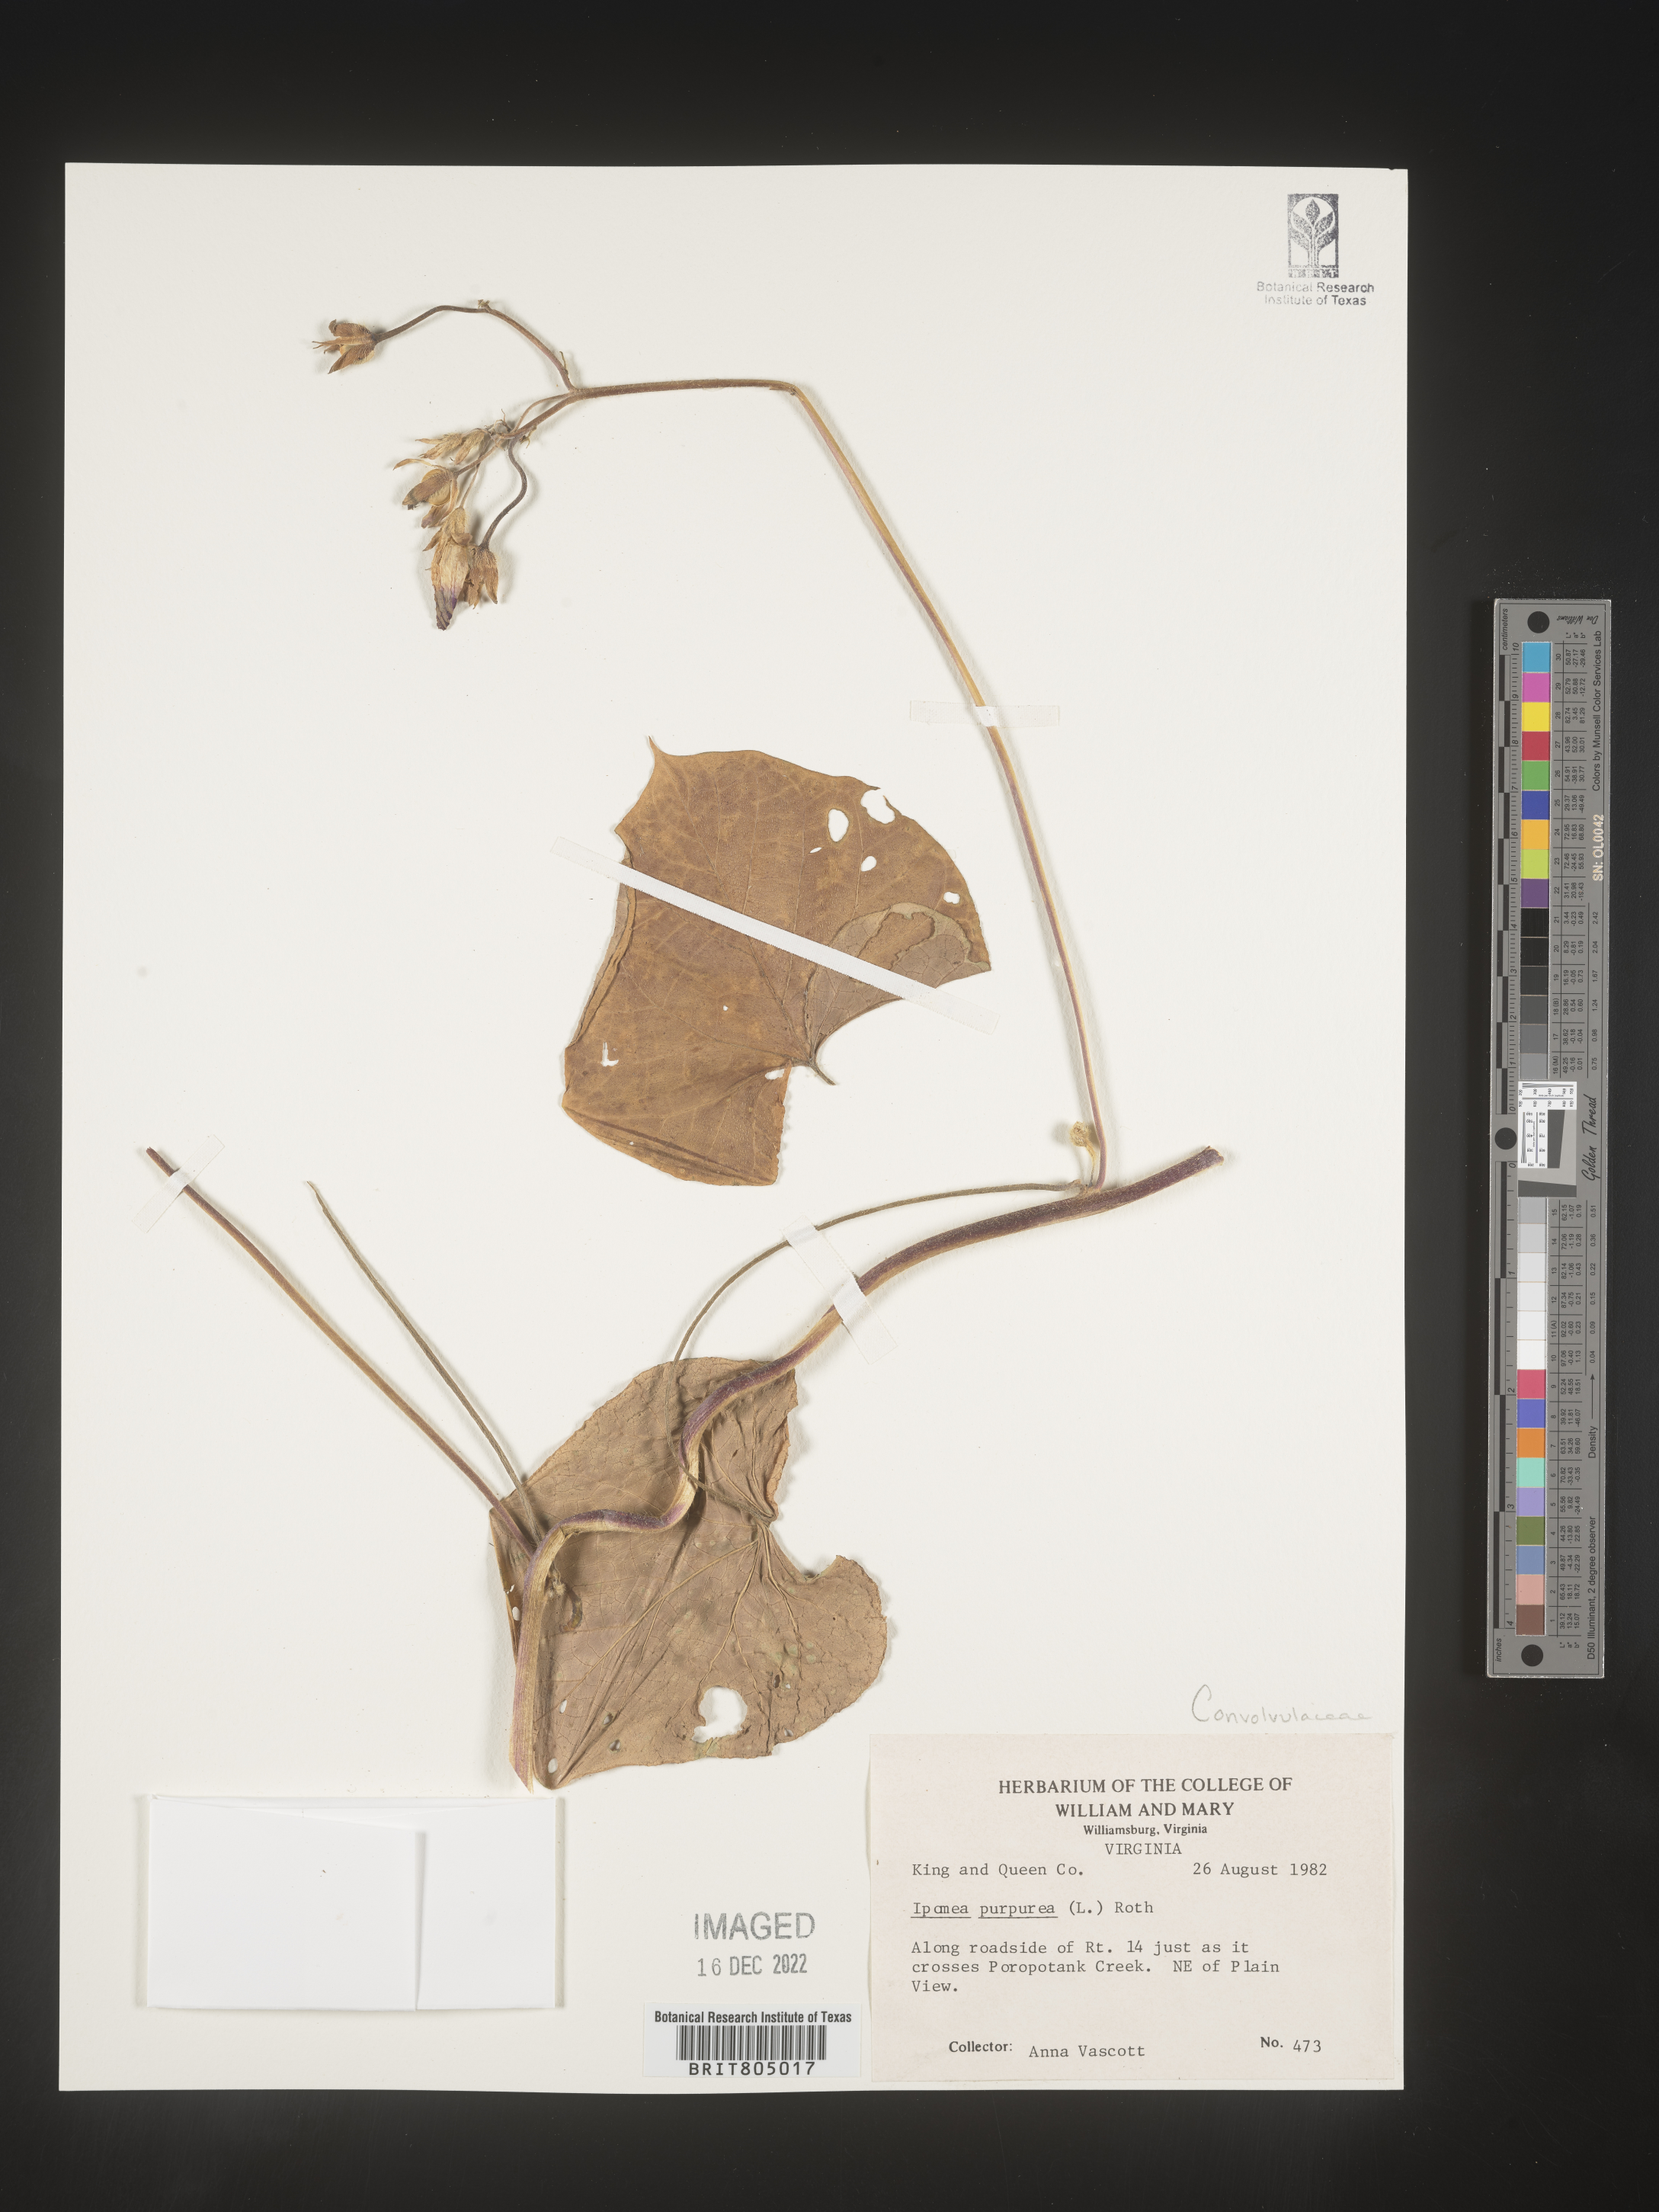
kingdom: Plantae
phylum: Tracheophyta
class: Magnoliopsida
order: Solanales
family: Convolvulaceae
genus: Ipomoea
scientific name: Ipomoea purpurea
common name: Common morning-glory
